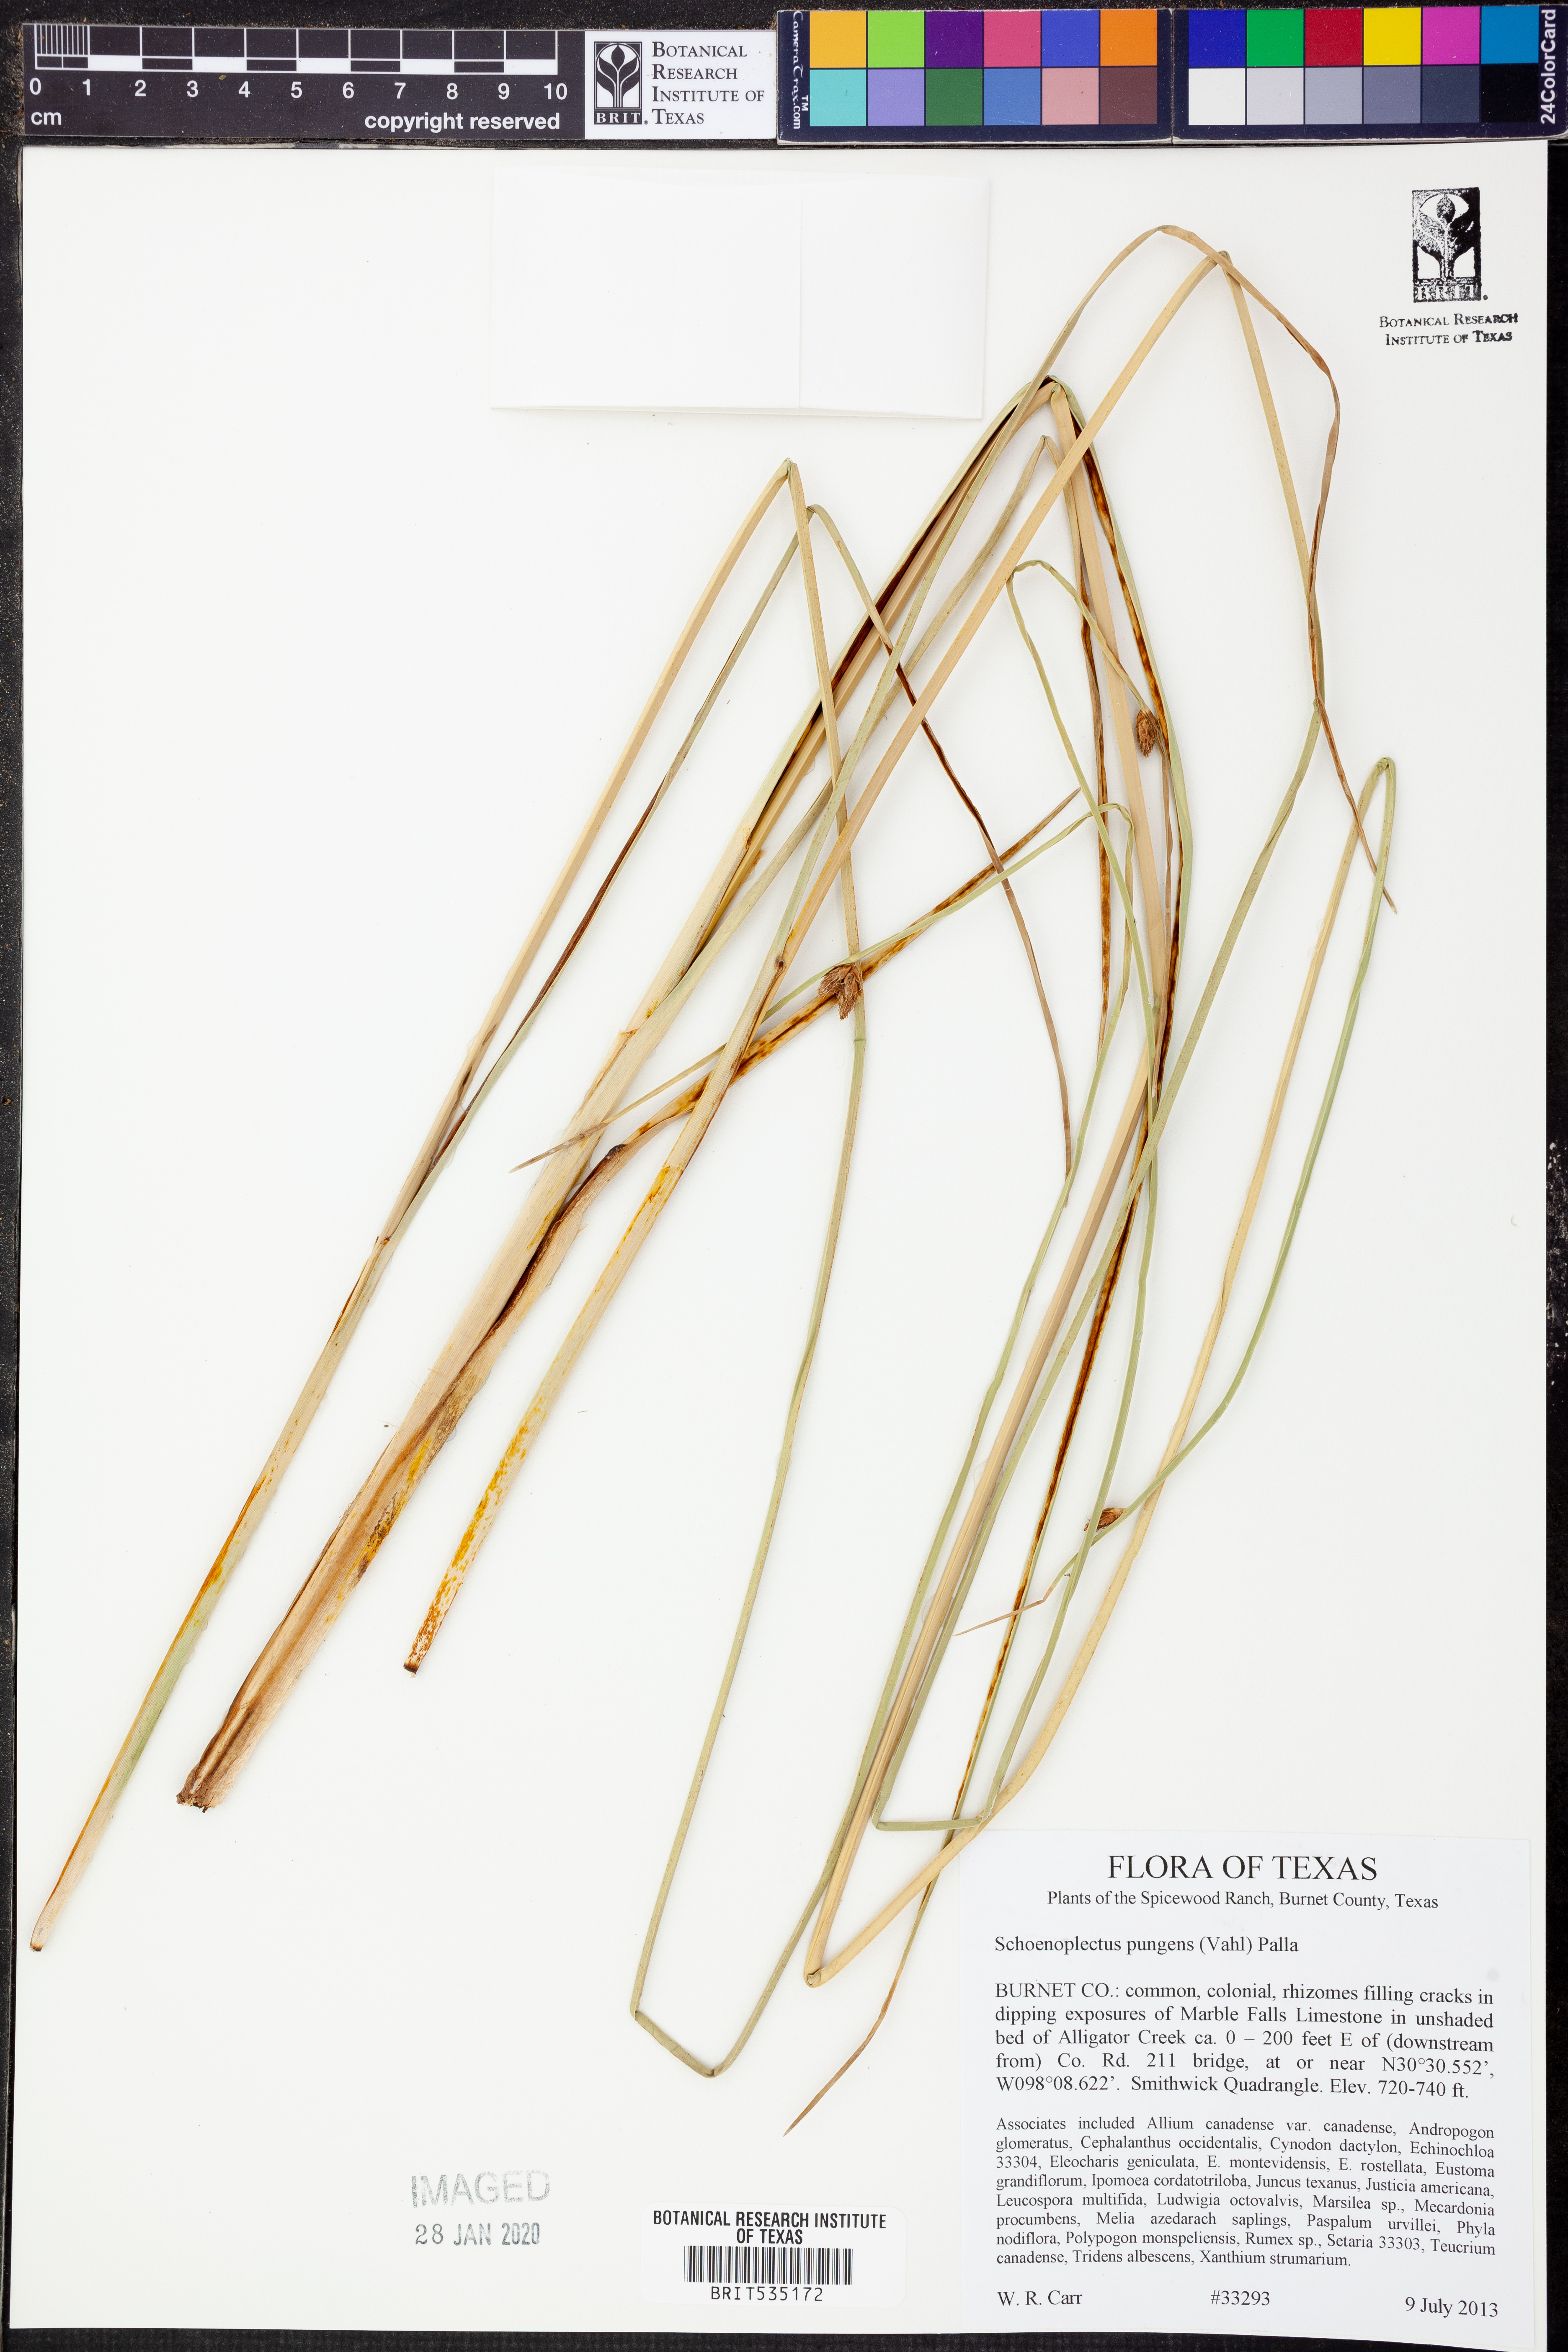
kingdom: Plantae
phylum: Tracheophyta
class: Liliopsida
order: Poales
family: Cyperaceae
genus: Schoenoplectus
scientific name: Schoenoplectus pungens
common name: Sharp club-rush
